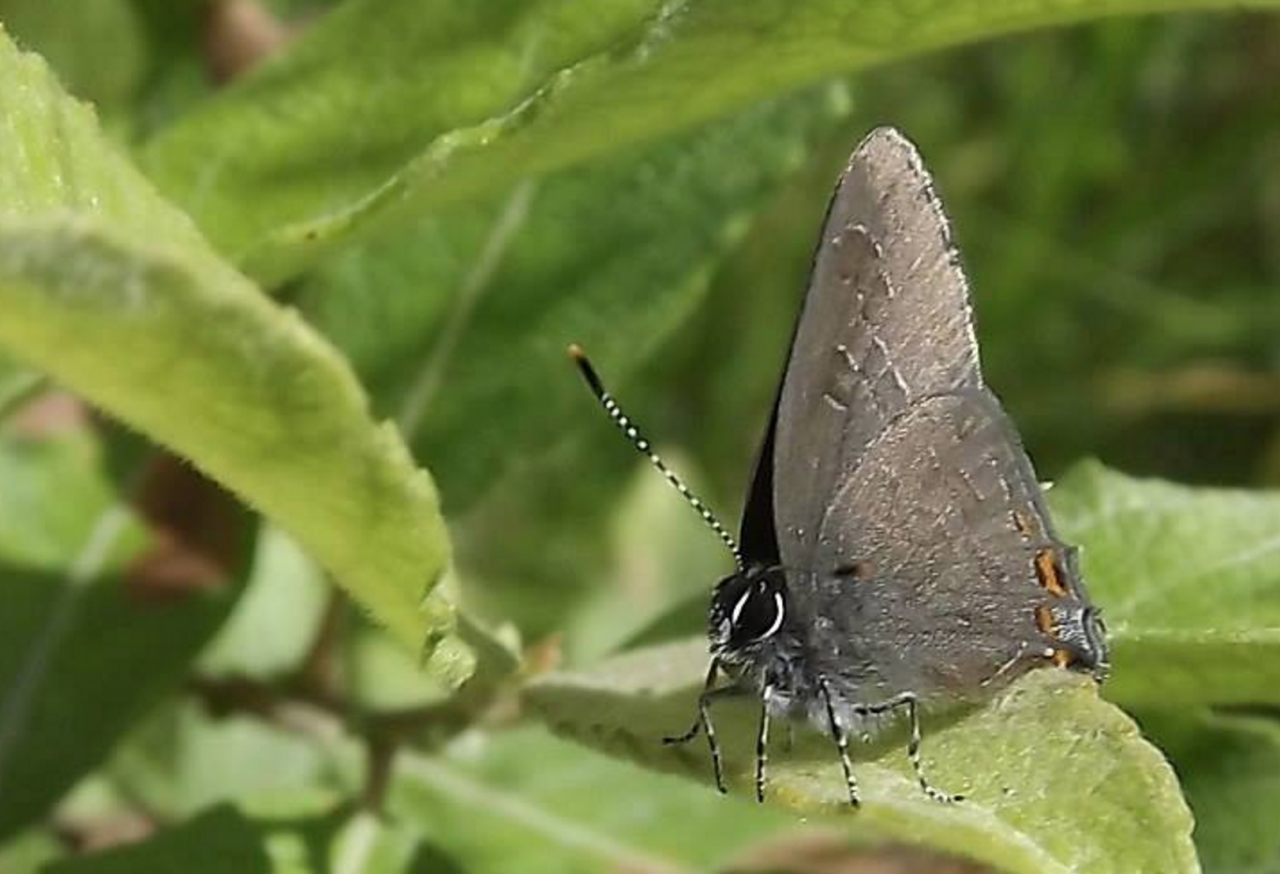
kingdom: Animalia
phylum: Arthropoda
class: Insecta
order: Lepidoptera
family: Lycaenidae
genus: Satyrium
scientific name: Satyrium liparops
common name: Striped Hairstreak
